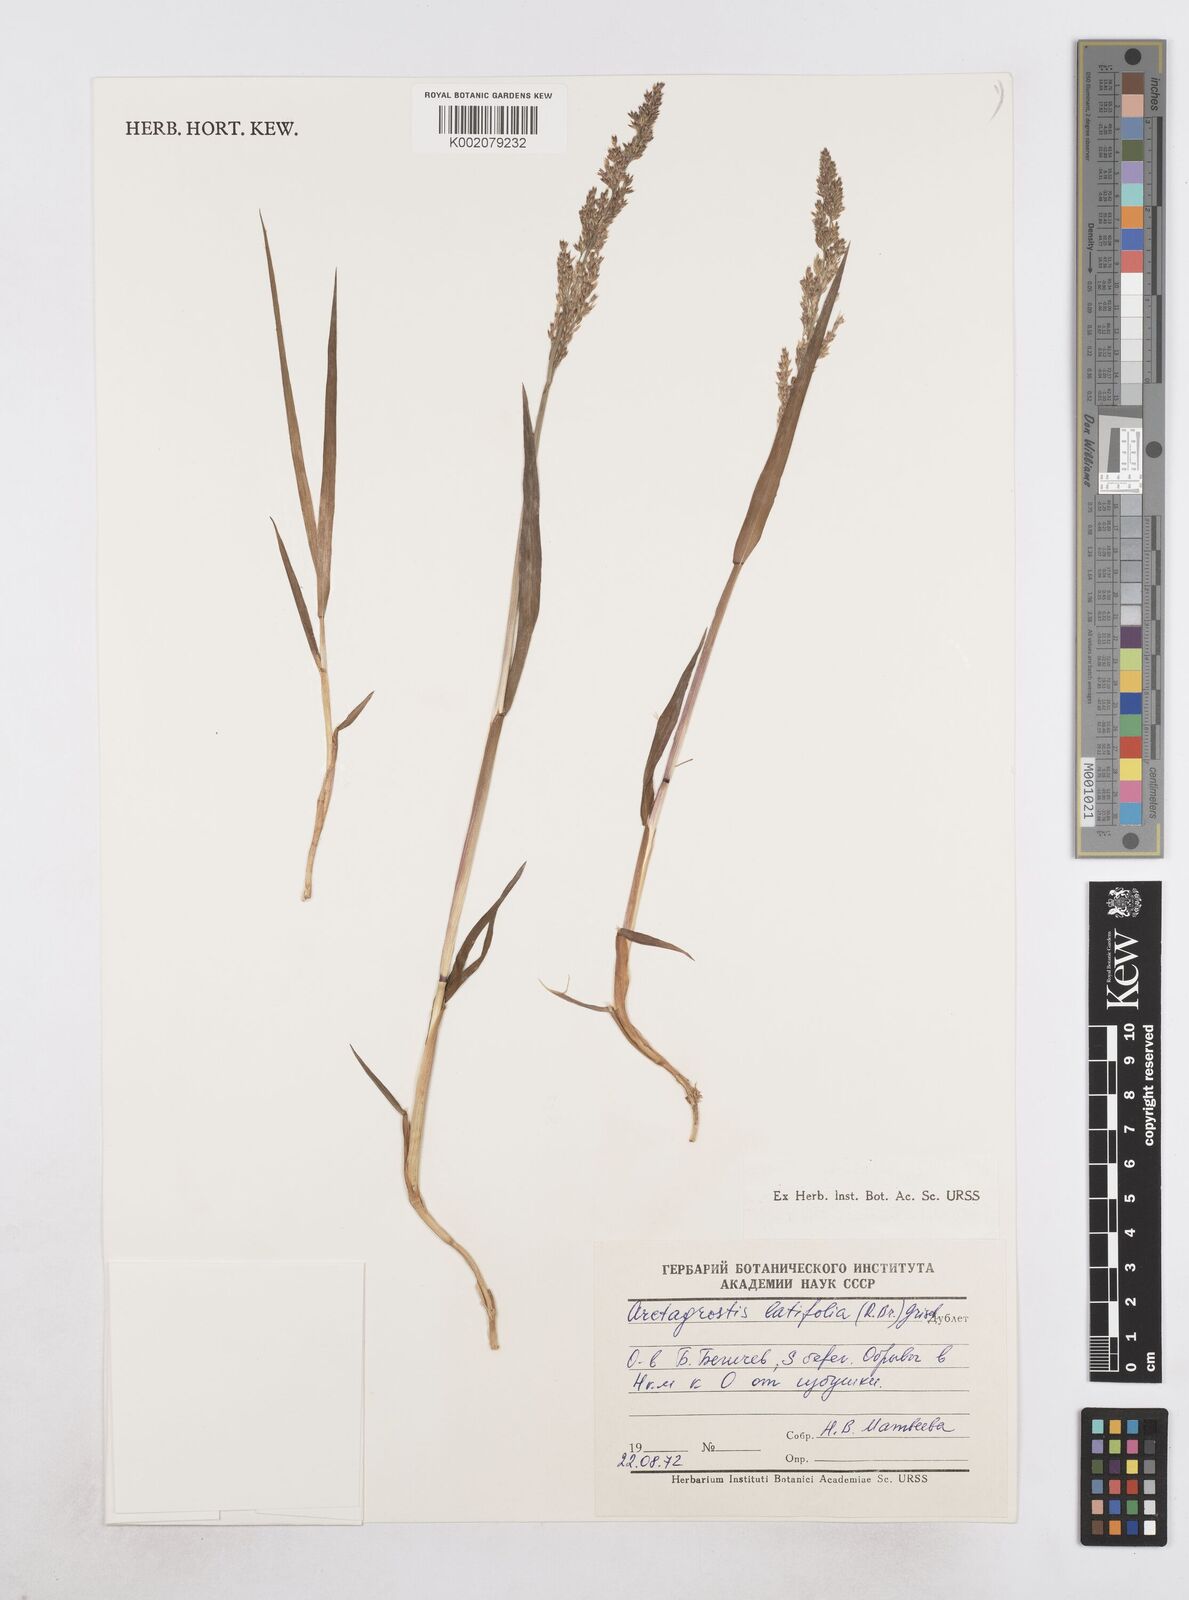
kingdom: Plantae
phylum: Tracheophyta
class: Liliopsida
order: Poales
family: Poaceae
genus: Arctagrostis
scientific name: Arctagrostis latifolia
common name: Arctic grass
